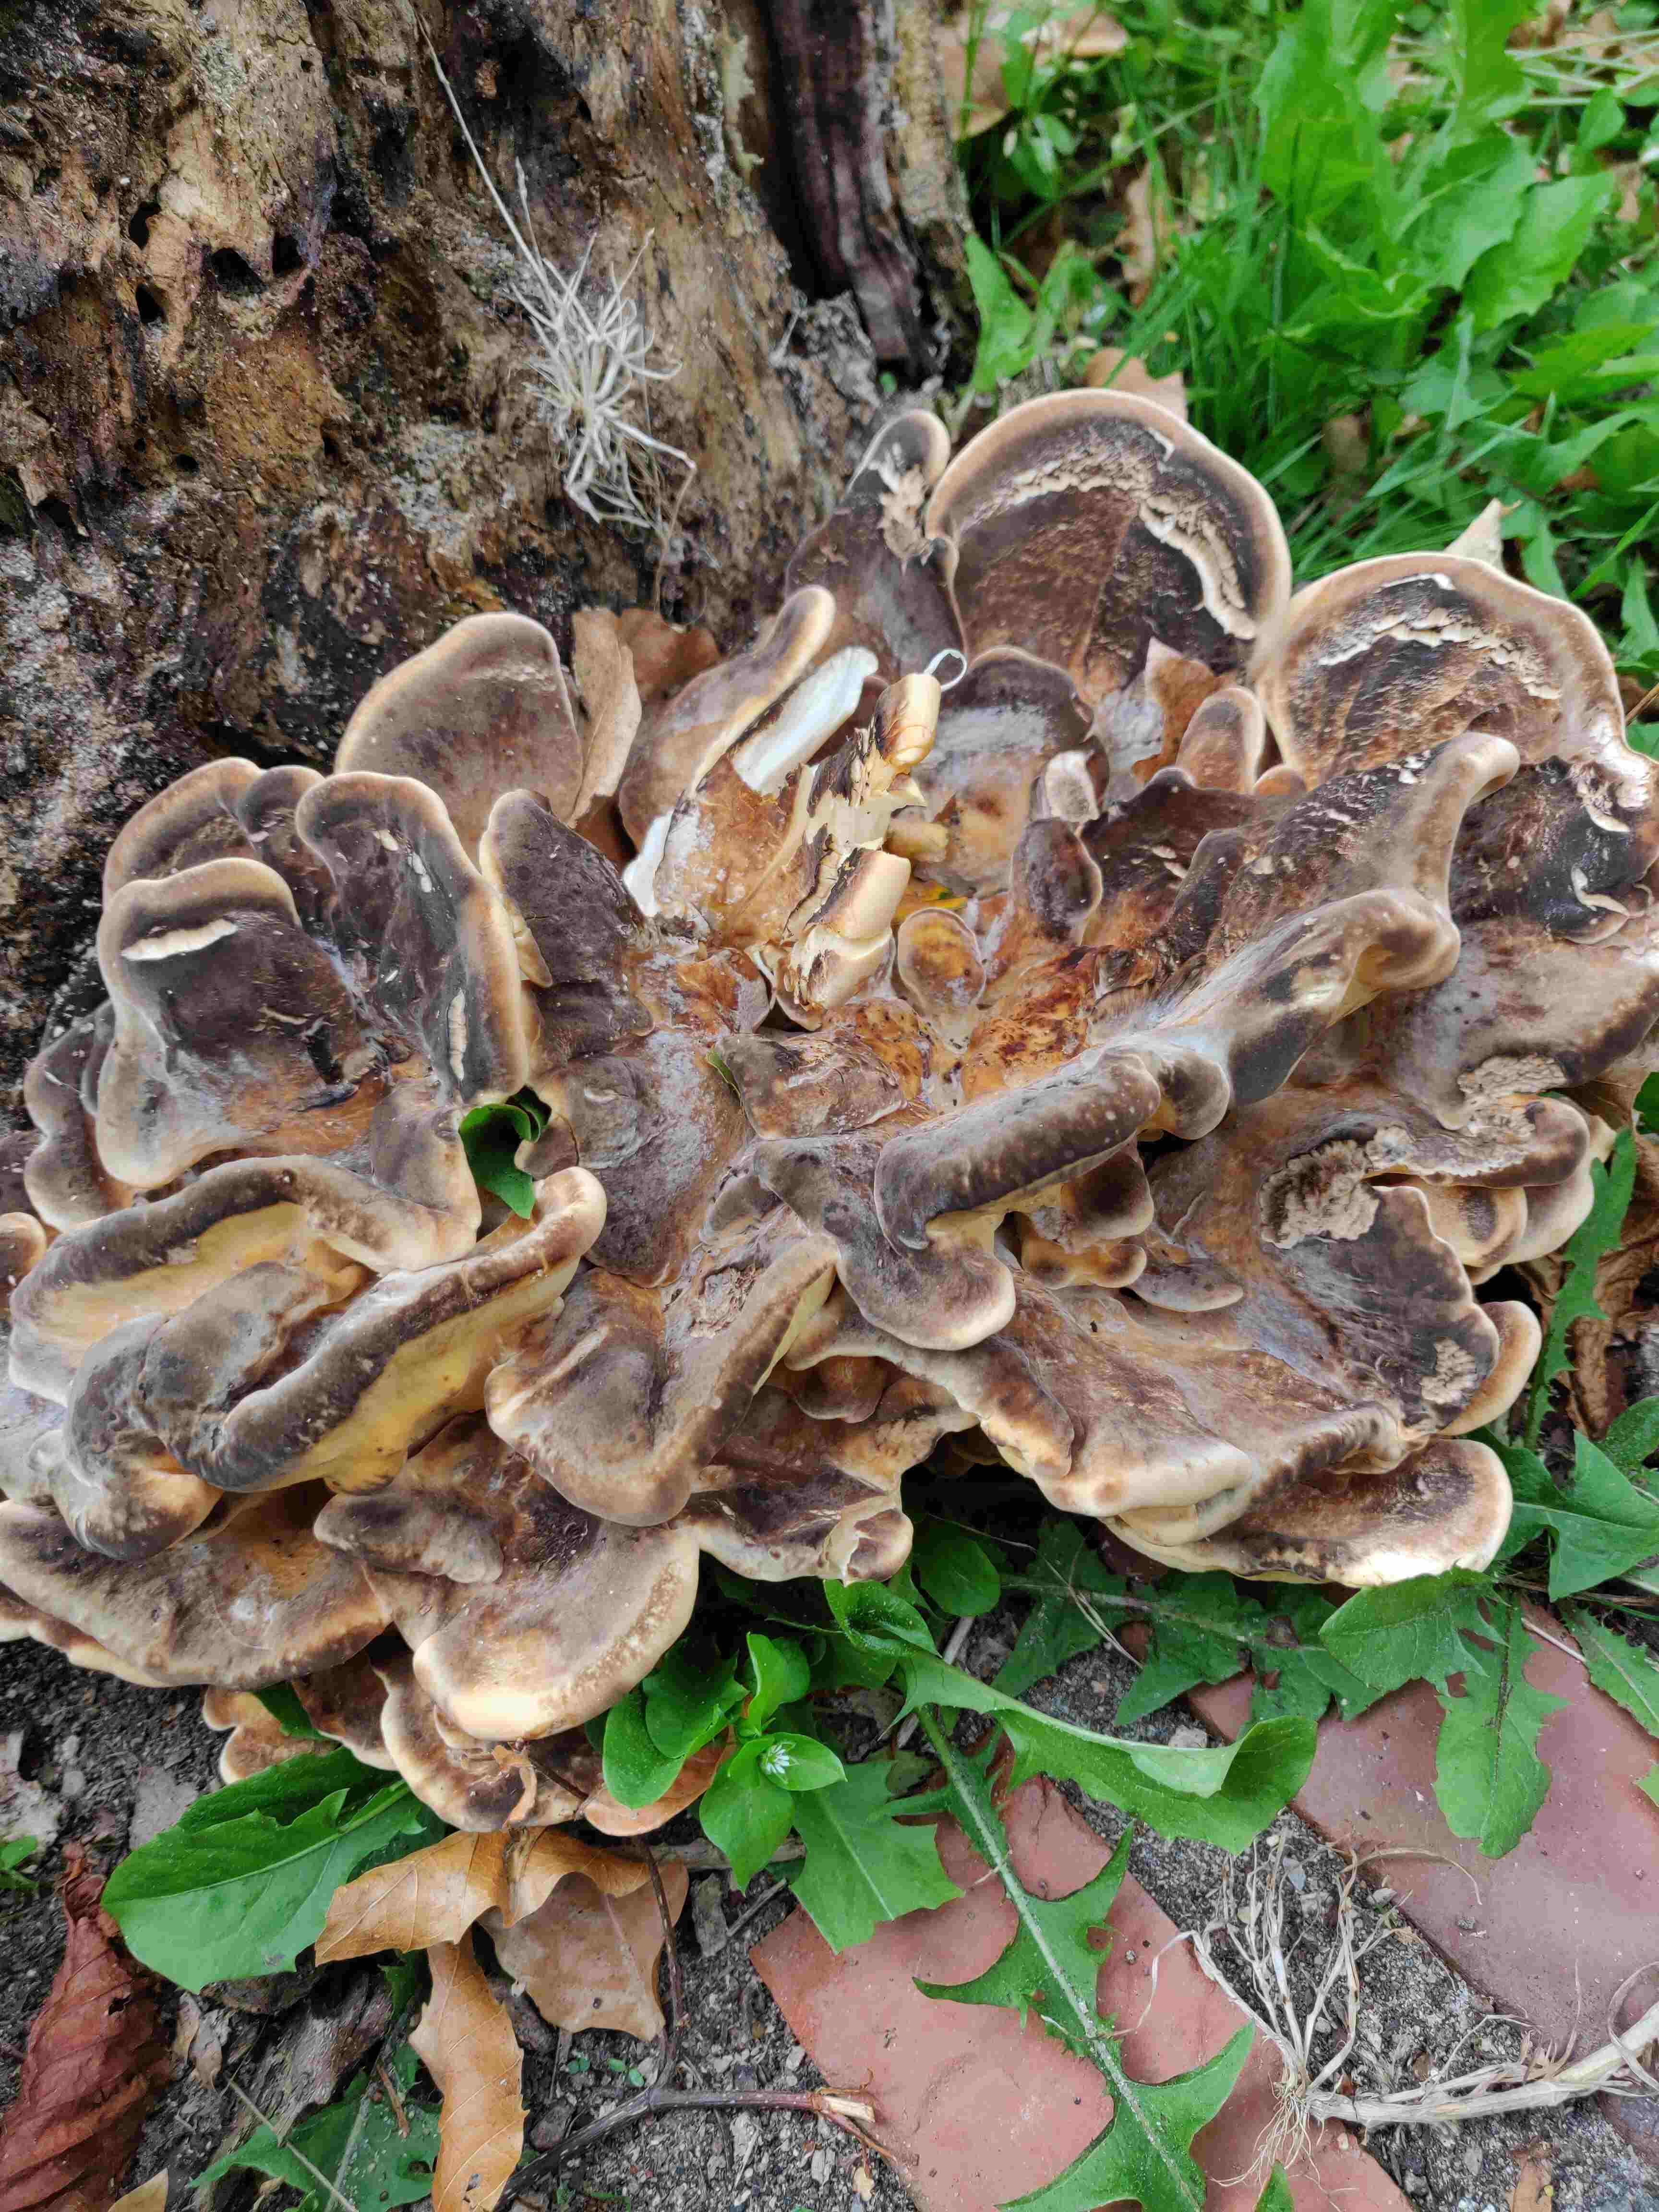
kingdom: Fungi
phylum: Basidiomycota
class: Agaricomycetes
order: Polyporales
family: Meripilaceae
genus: Meripilus
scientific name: Meripilus giganteus
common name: kæmpeporesvamp
